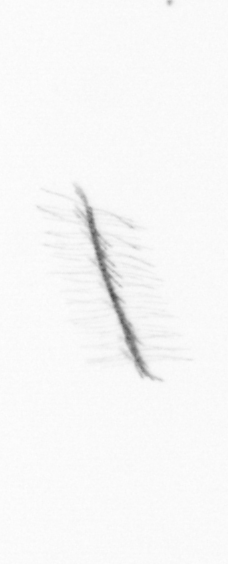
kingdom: Chromista
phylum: Ochrophyta
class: Bacillariophyceae
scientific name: Bacillariophyceae
